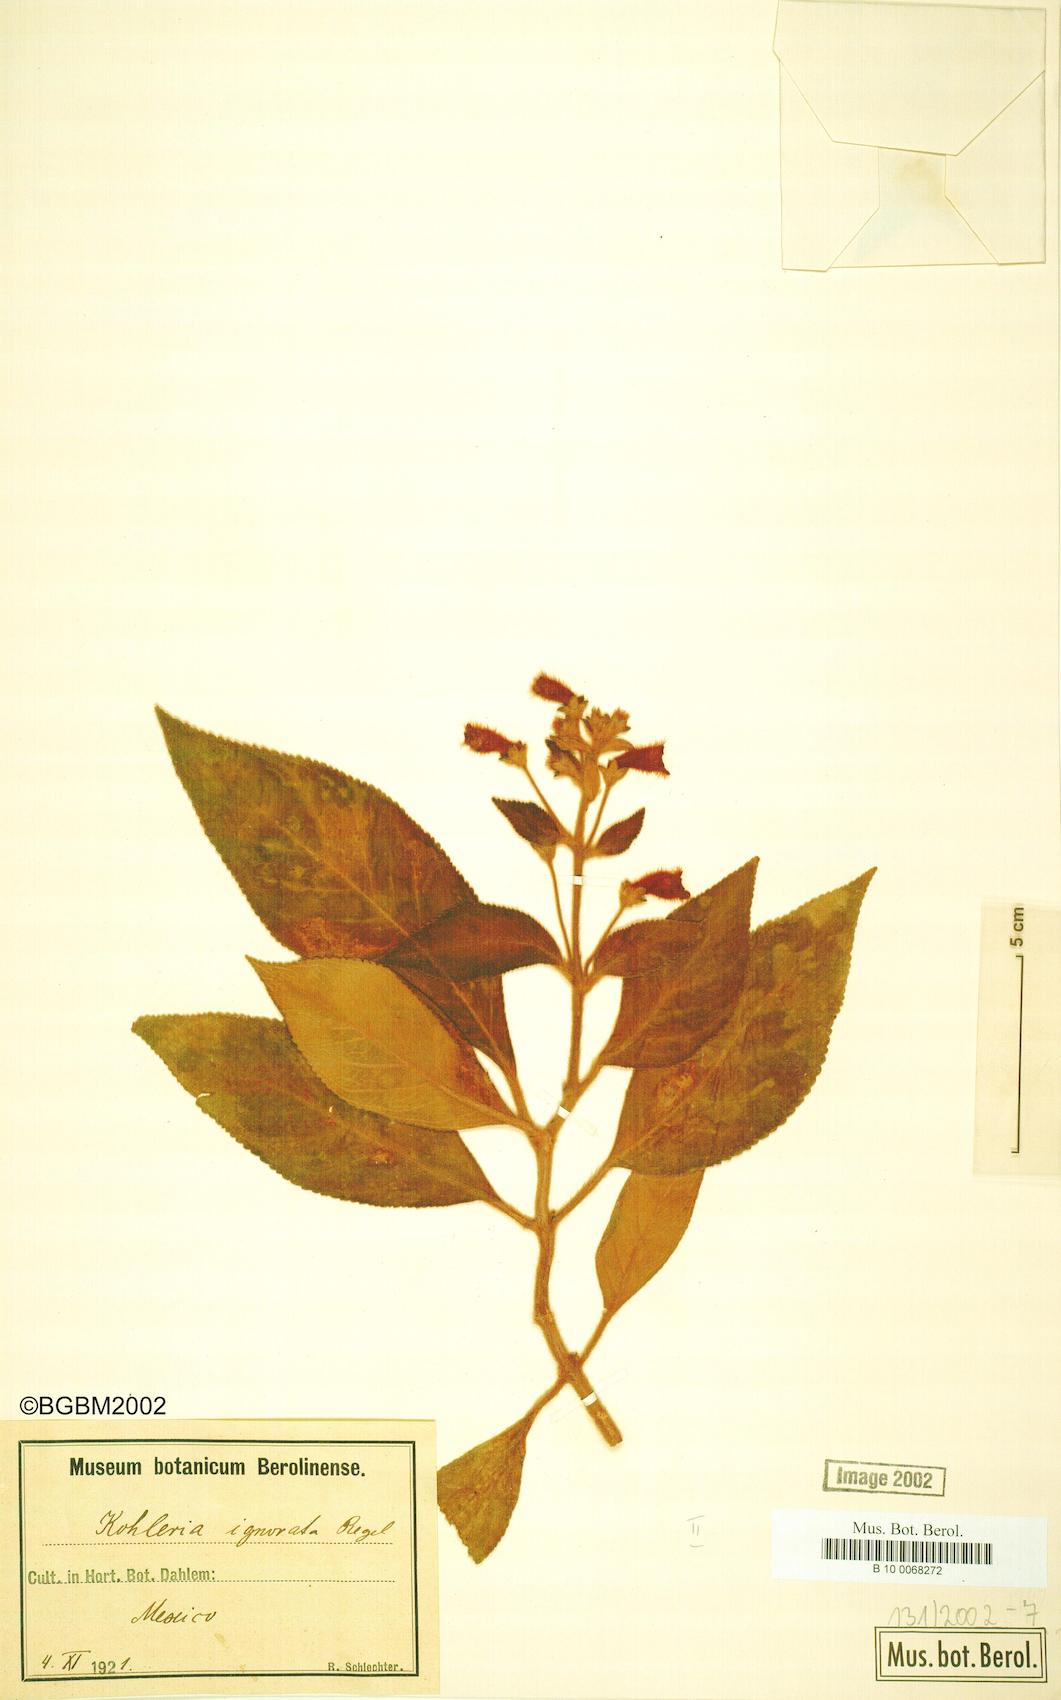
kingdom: Plantae
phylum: Tracheophyta
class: Magnoliopsida
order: Lamiales
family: Gesneriaceae
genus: Kohleria
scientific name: Kohleria spicata
